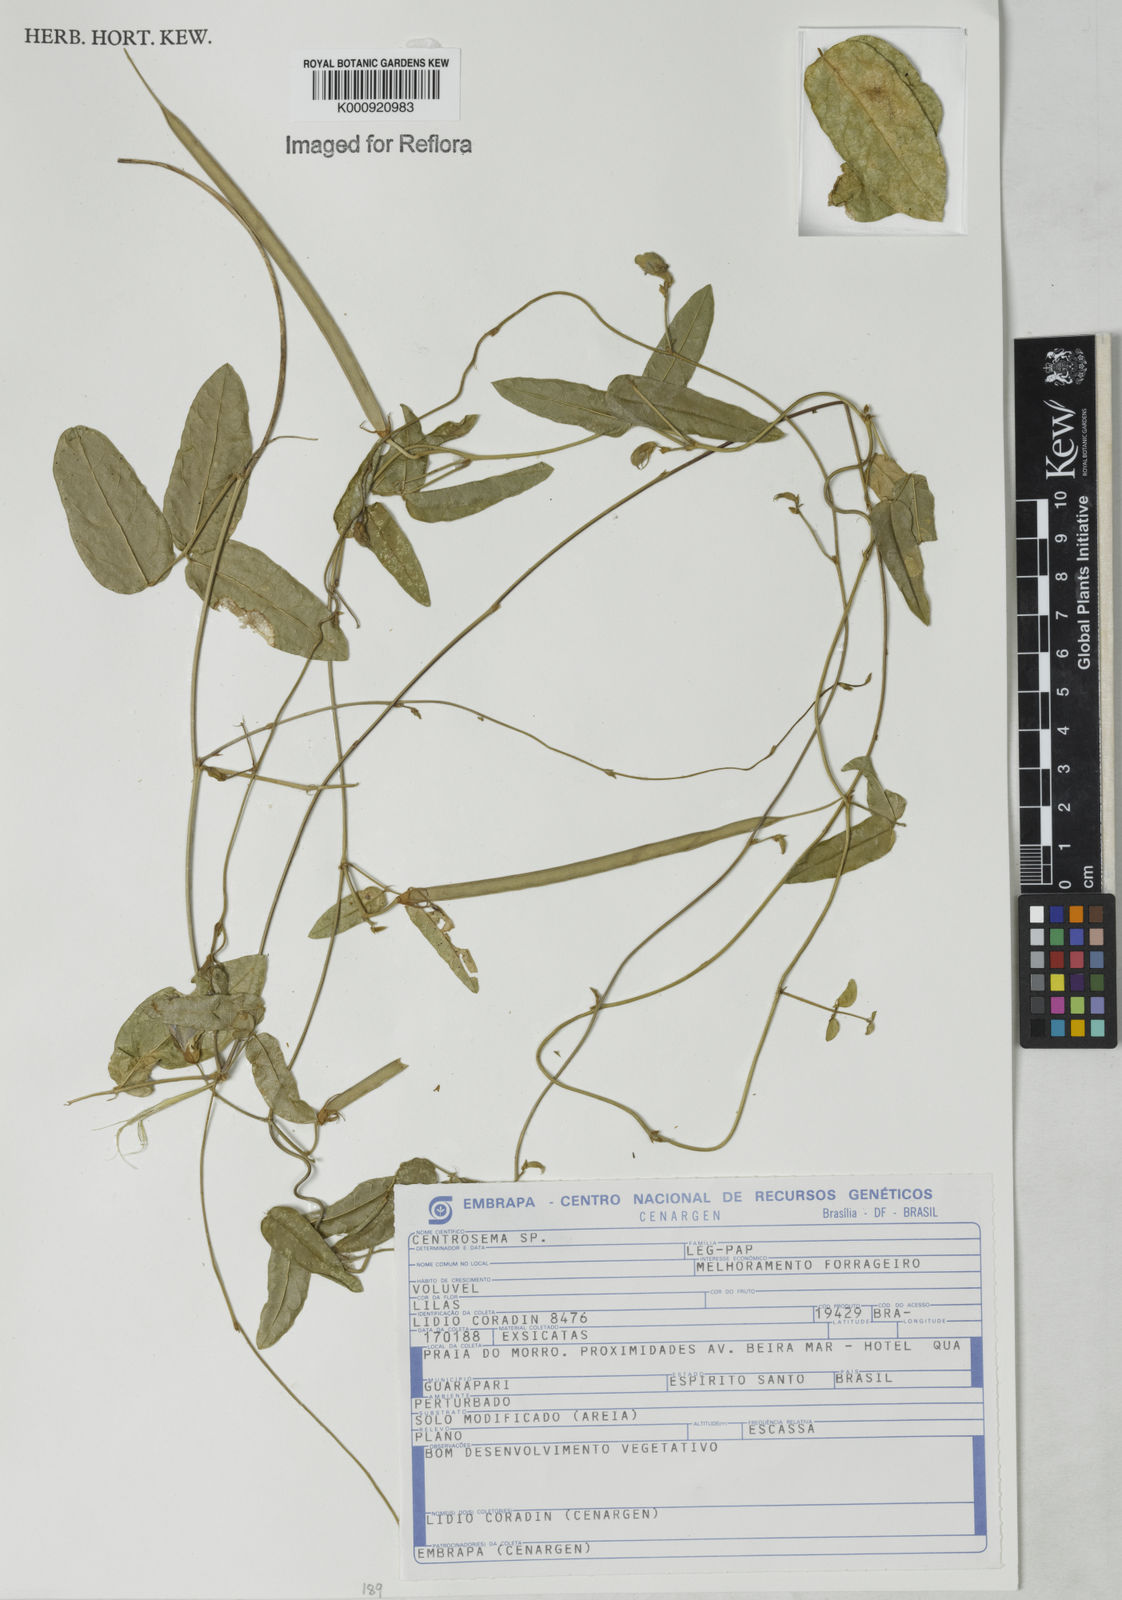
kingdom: Plantae
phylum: Tracheophyta
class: Magnoliopsida
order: Fabales
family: Fabaceae
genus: Centrosema
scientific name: Centrosema
